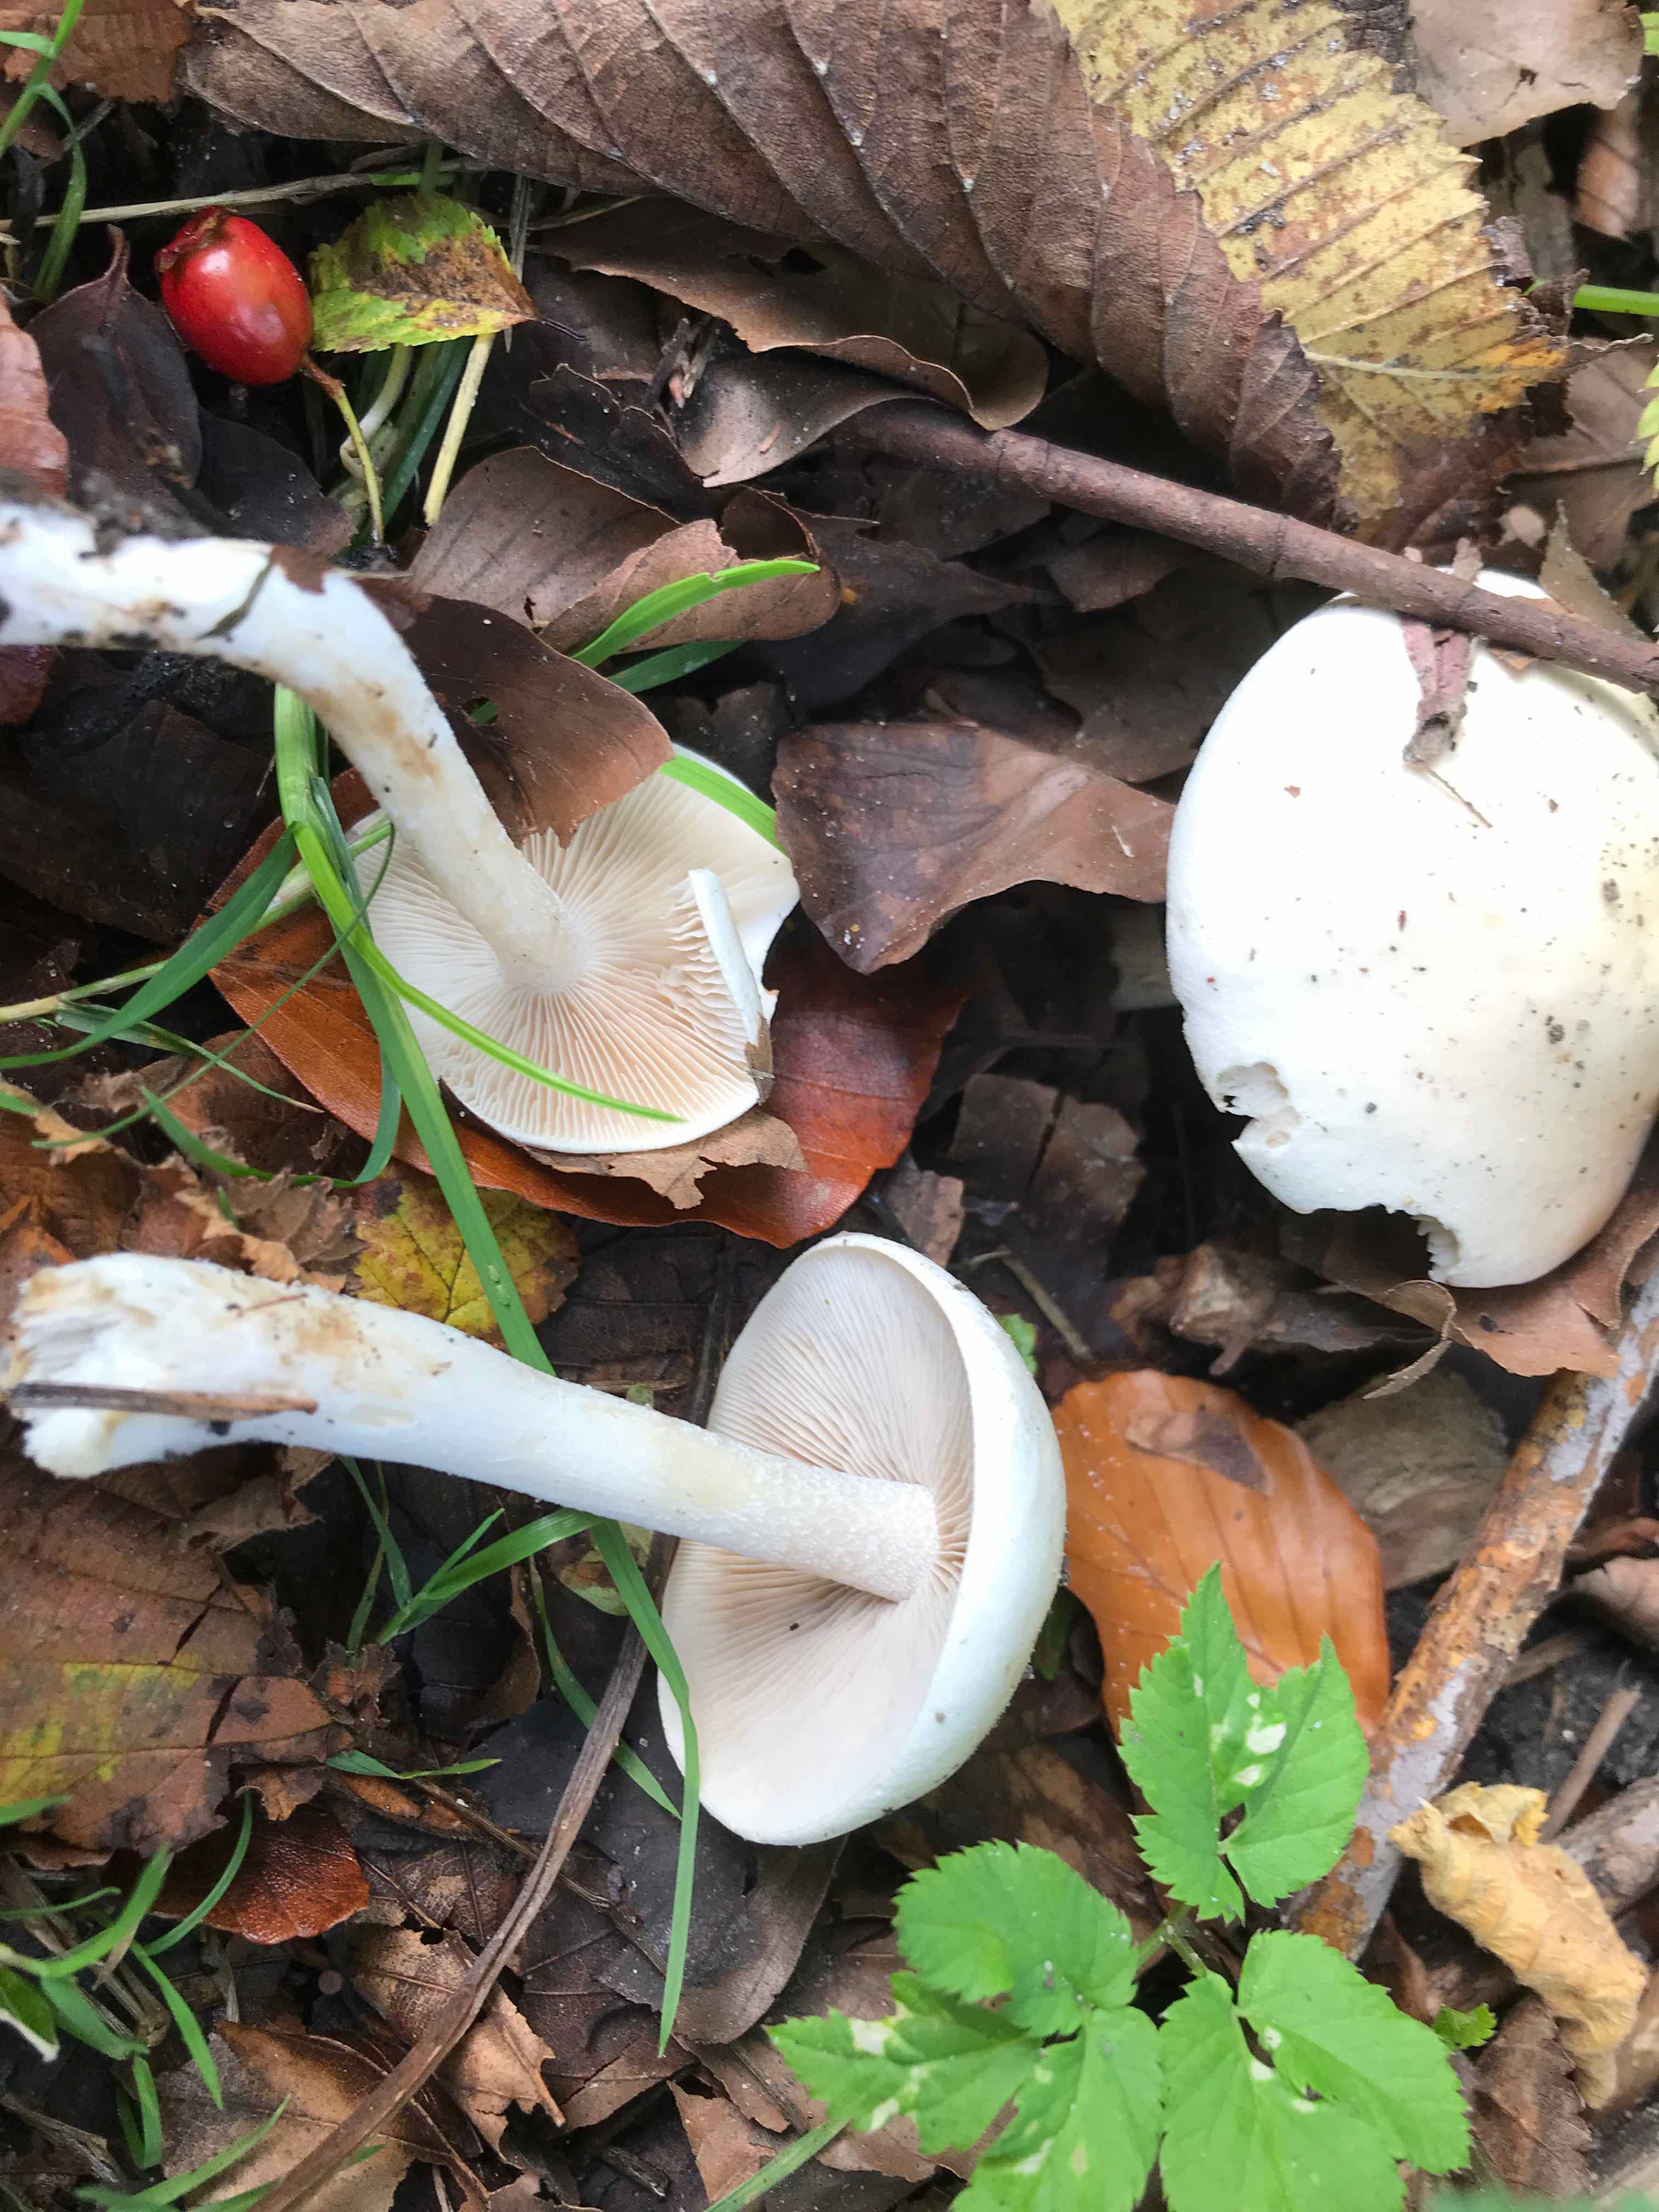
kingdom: Fungi
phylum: Basidiomycota
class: Agaricomycetes
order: Agaricales
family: Hymenogastraceae
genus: Hebeloma
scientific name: Hebeloma
